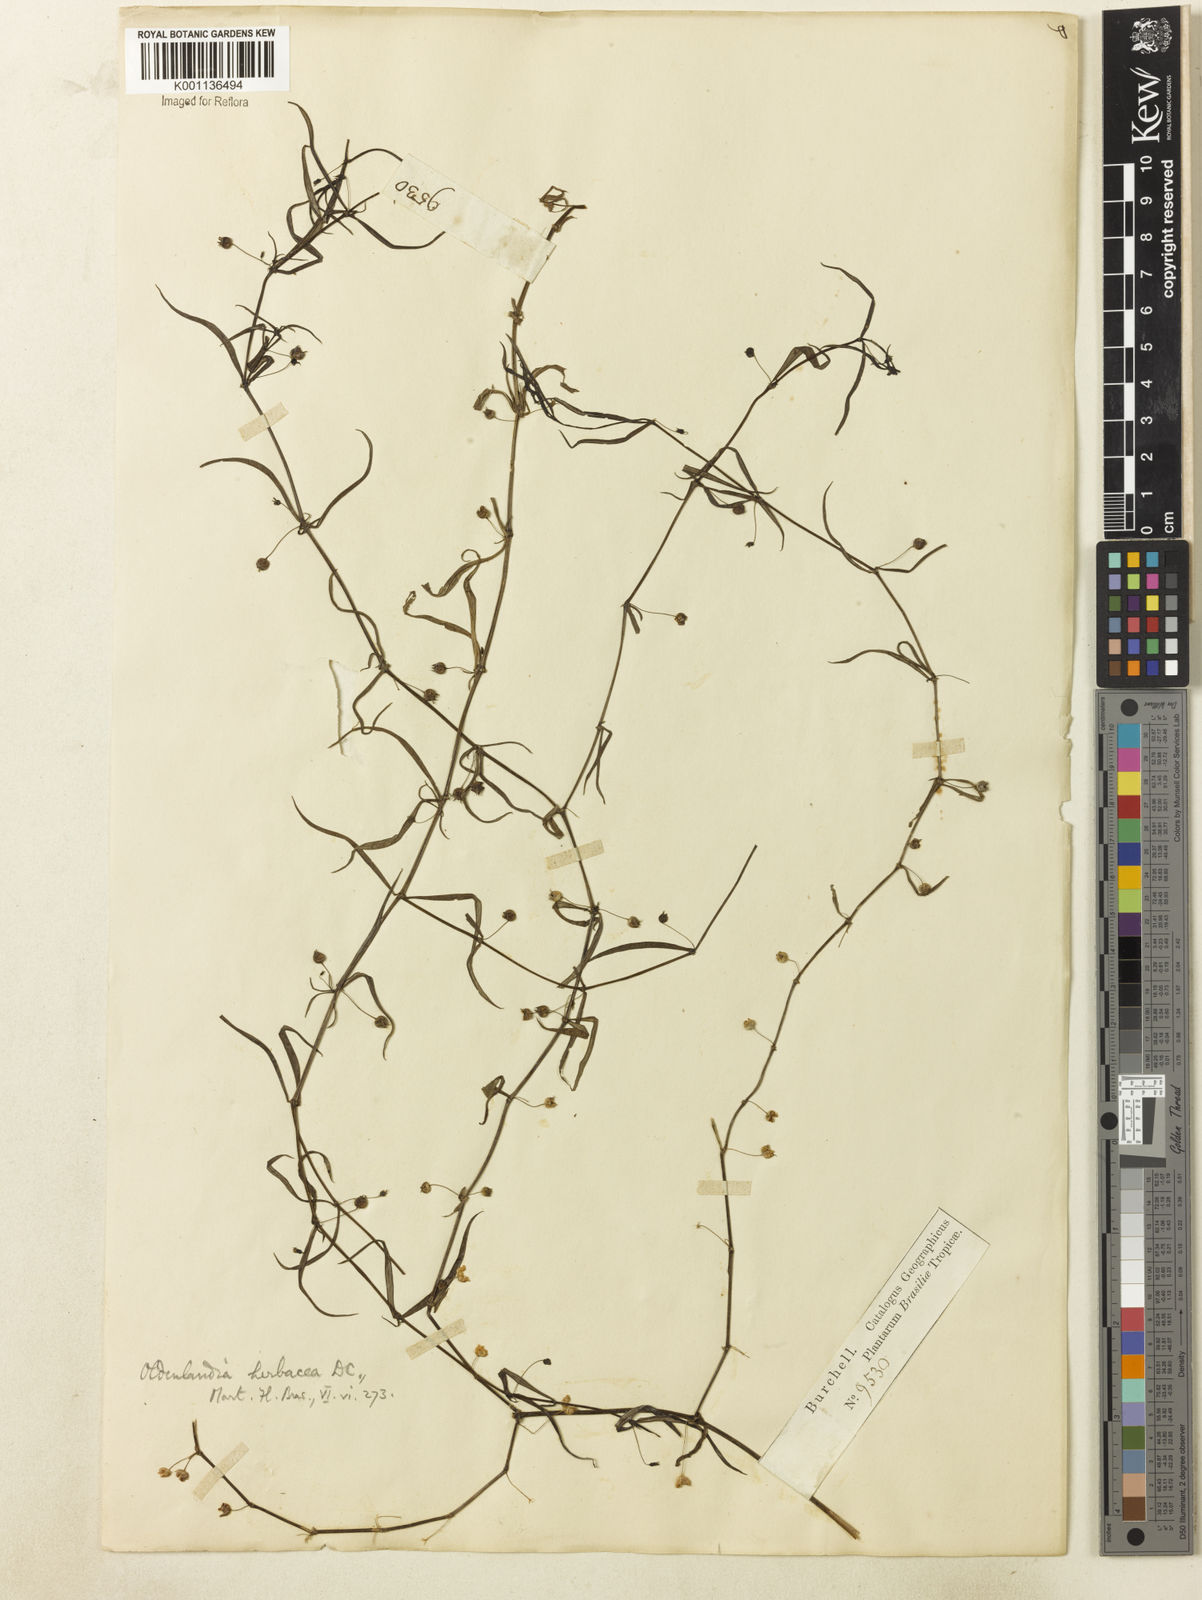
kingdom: Plantae
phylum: Tracheophyta
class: Magnoliopsida
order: Gentianales
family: Rubiaceae
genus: Oldenlandia
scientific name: Oldenlandia lancifolia
